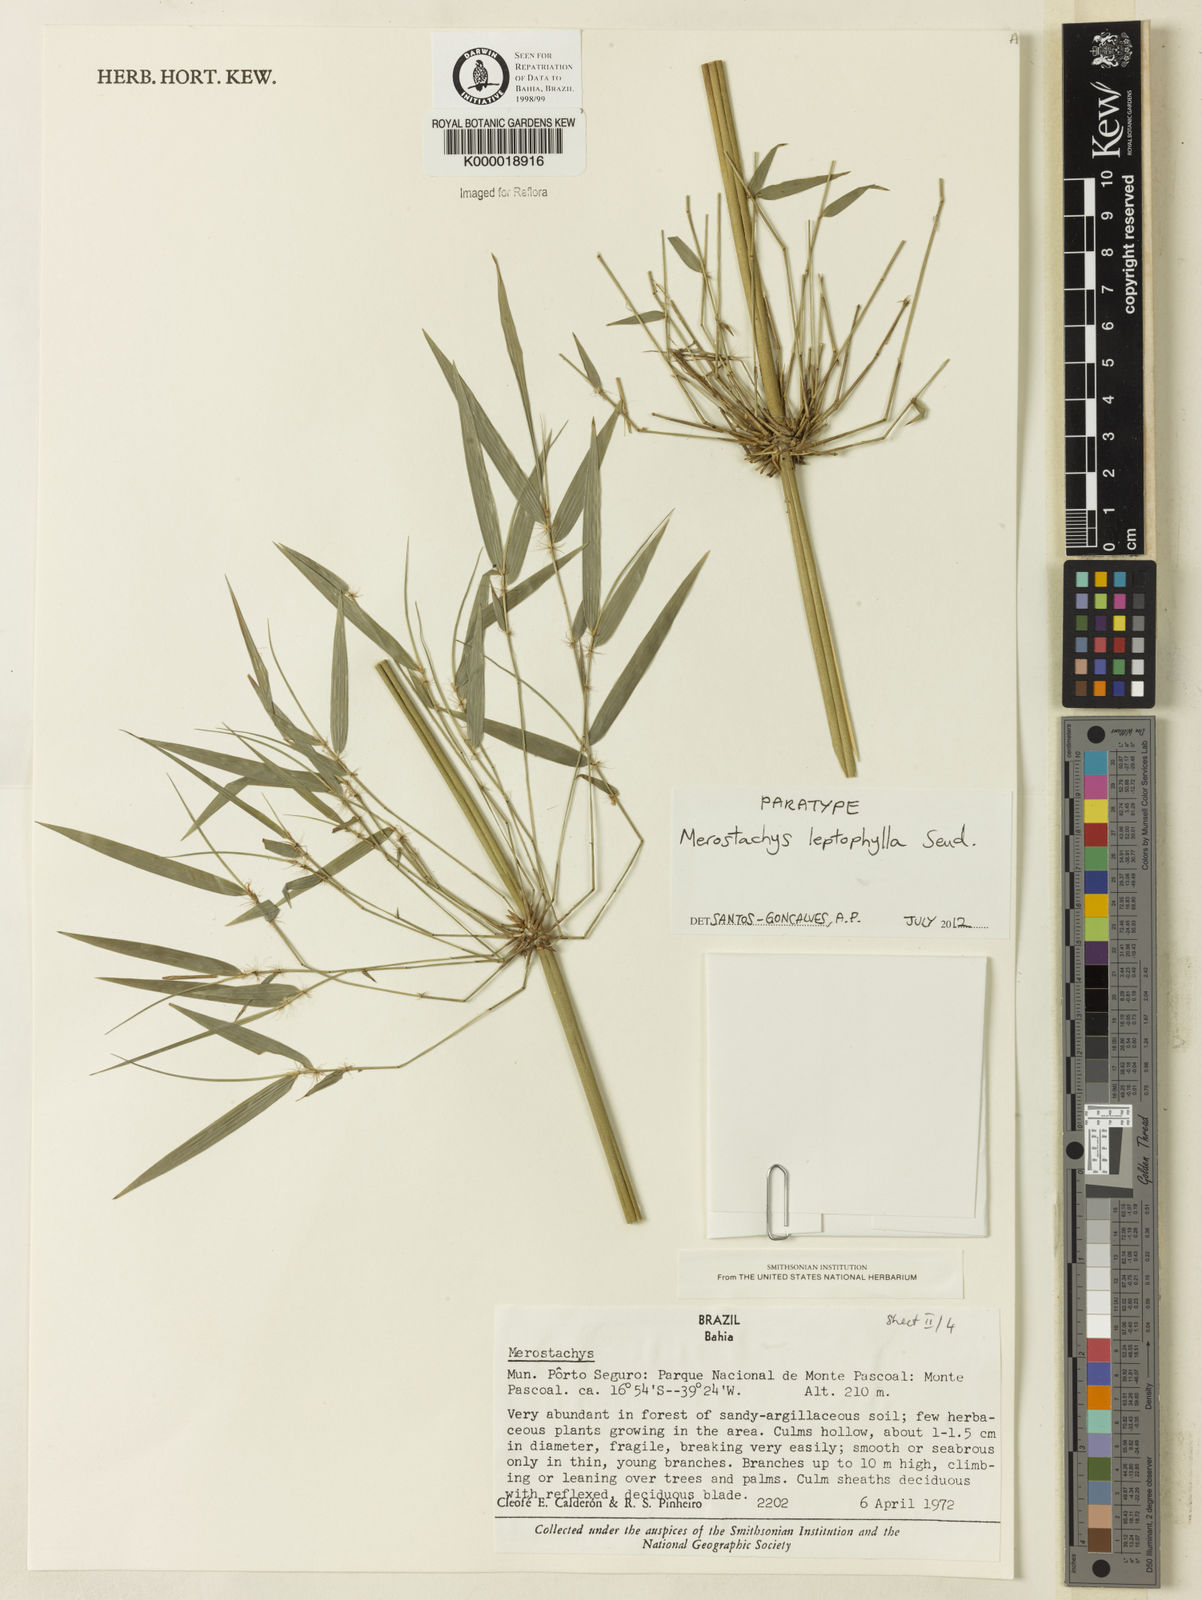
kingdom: Plantae
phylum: Tracheophyta
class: Liliopsida
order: Poales
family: Poaceae
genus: Merostachys
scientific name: Merostachys leptophylla
